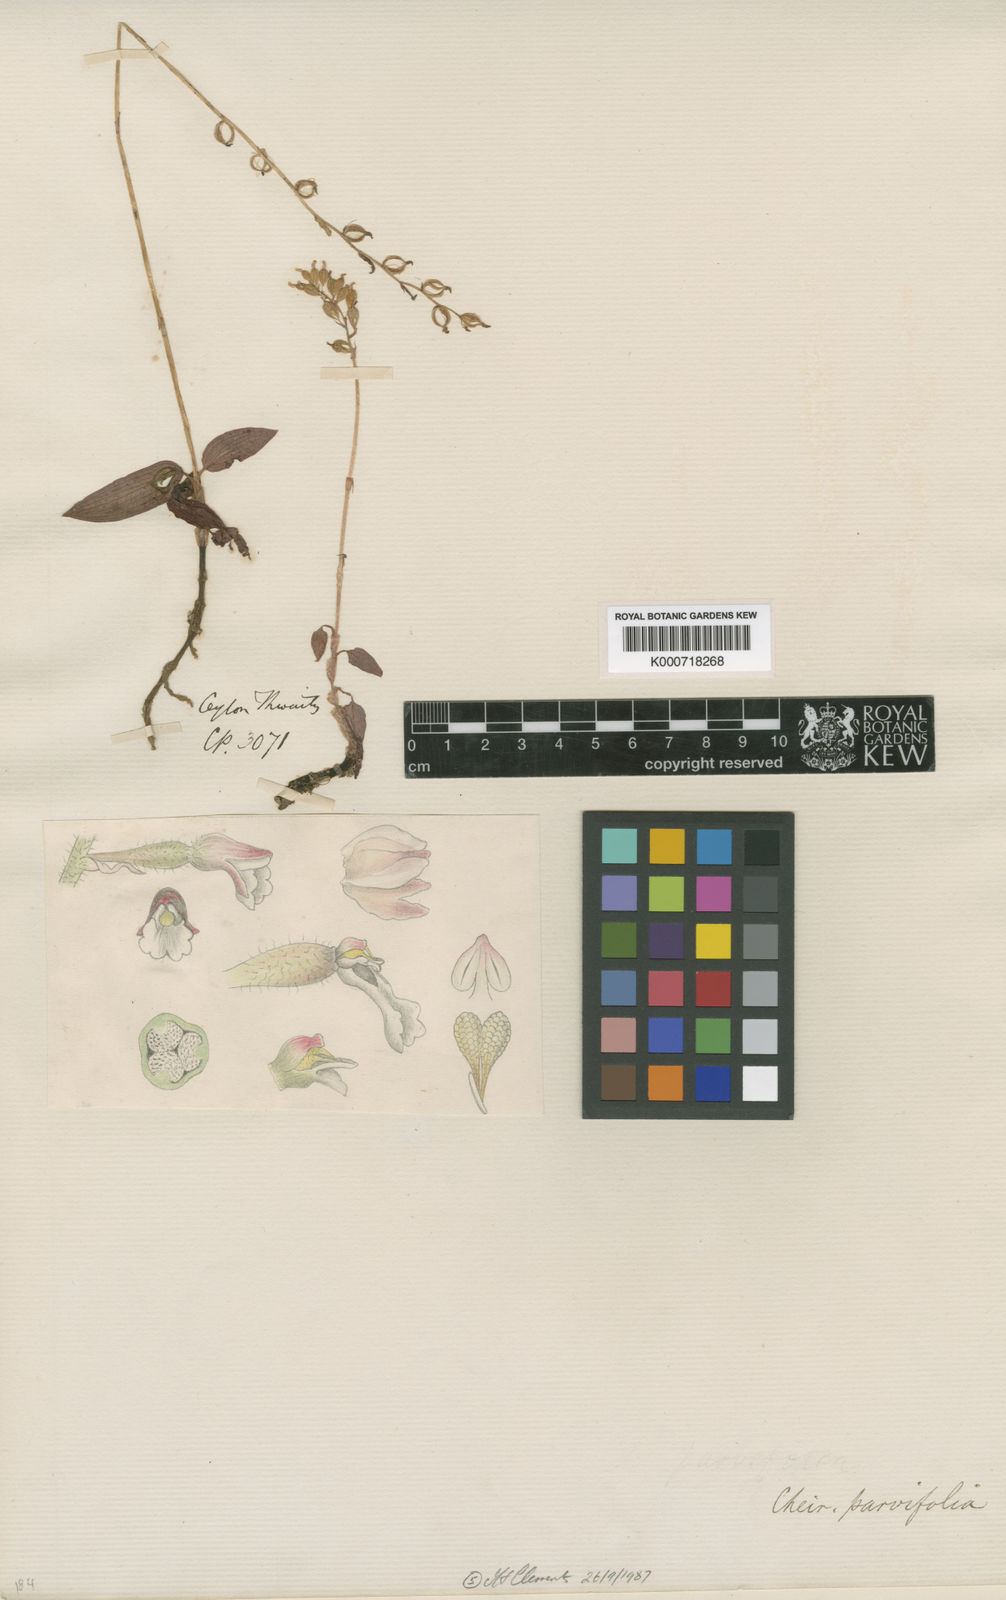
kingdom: Plantae
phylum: Tracheophyta
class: Liliopsida
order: Asparagales
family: Orchidaceae
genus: Cheirostylis
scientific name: Cheirostylis parvifolia
